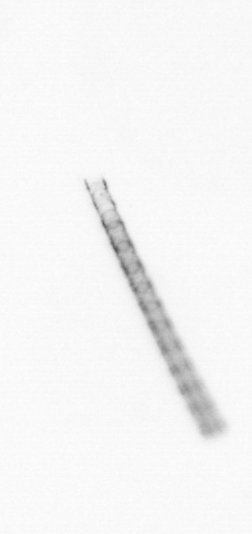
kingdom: Chromista
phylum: Ochrophyta
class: Bacillariophyceae
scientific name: Bacillariophyceae
